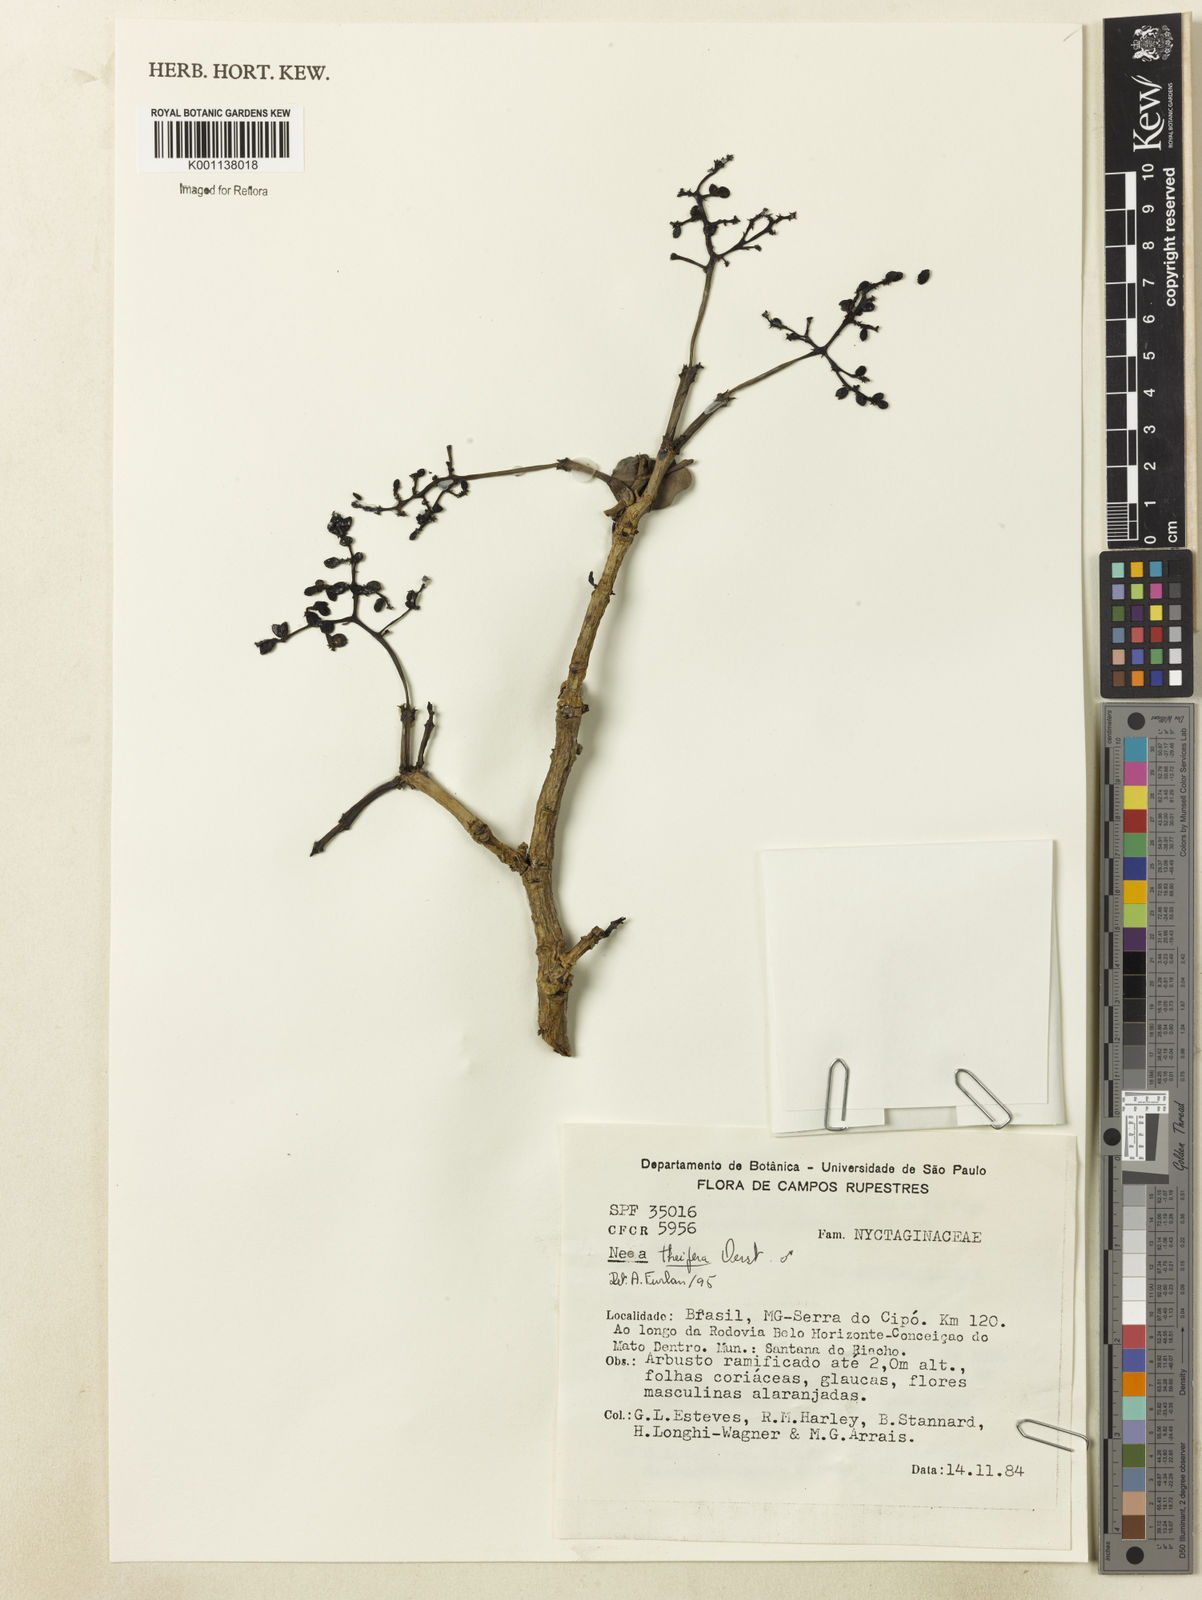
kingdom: Plantae
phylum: Tracheophyta
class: Magnoliopsida
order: Caryophyllales
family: Nyctaginaceae
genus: Neea
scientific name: Neea theifera
